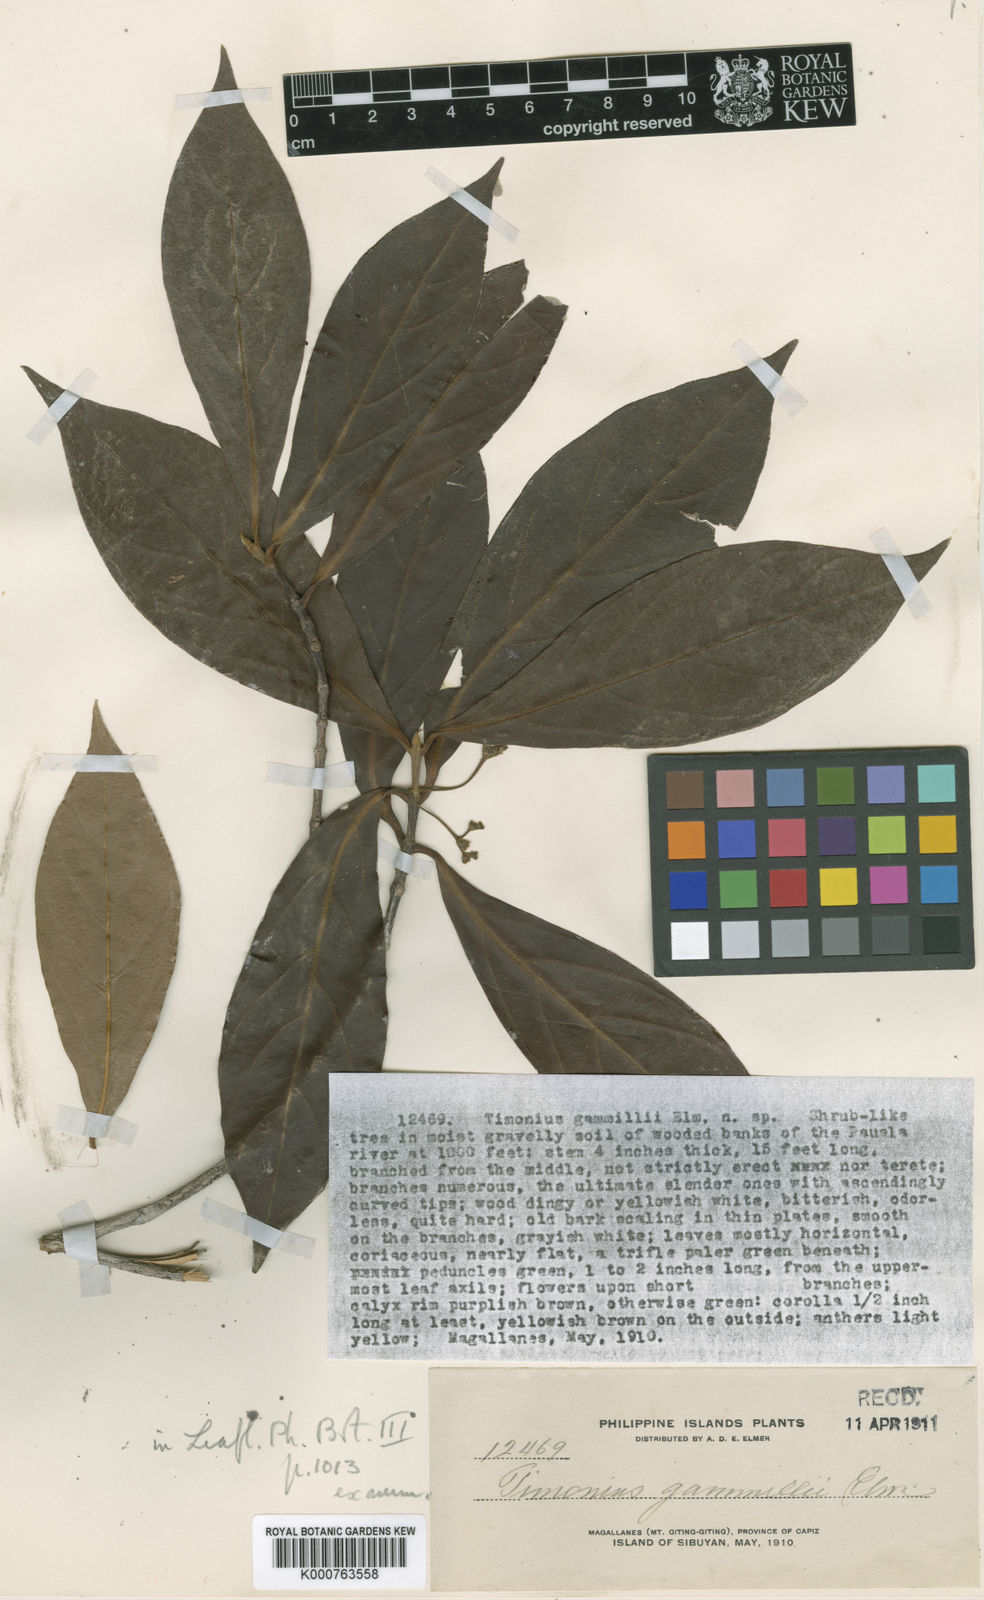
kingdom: Plantae
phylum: Tracheophyta
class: Magnoliopsida
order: Gentianales
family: Rubiaceae
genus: Timonius
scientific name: Timonius gammillii
